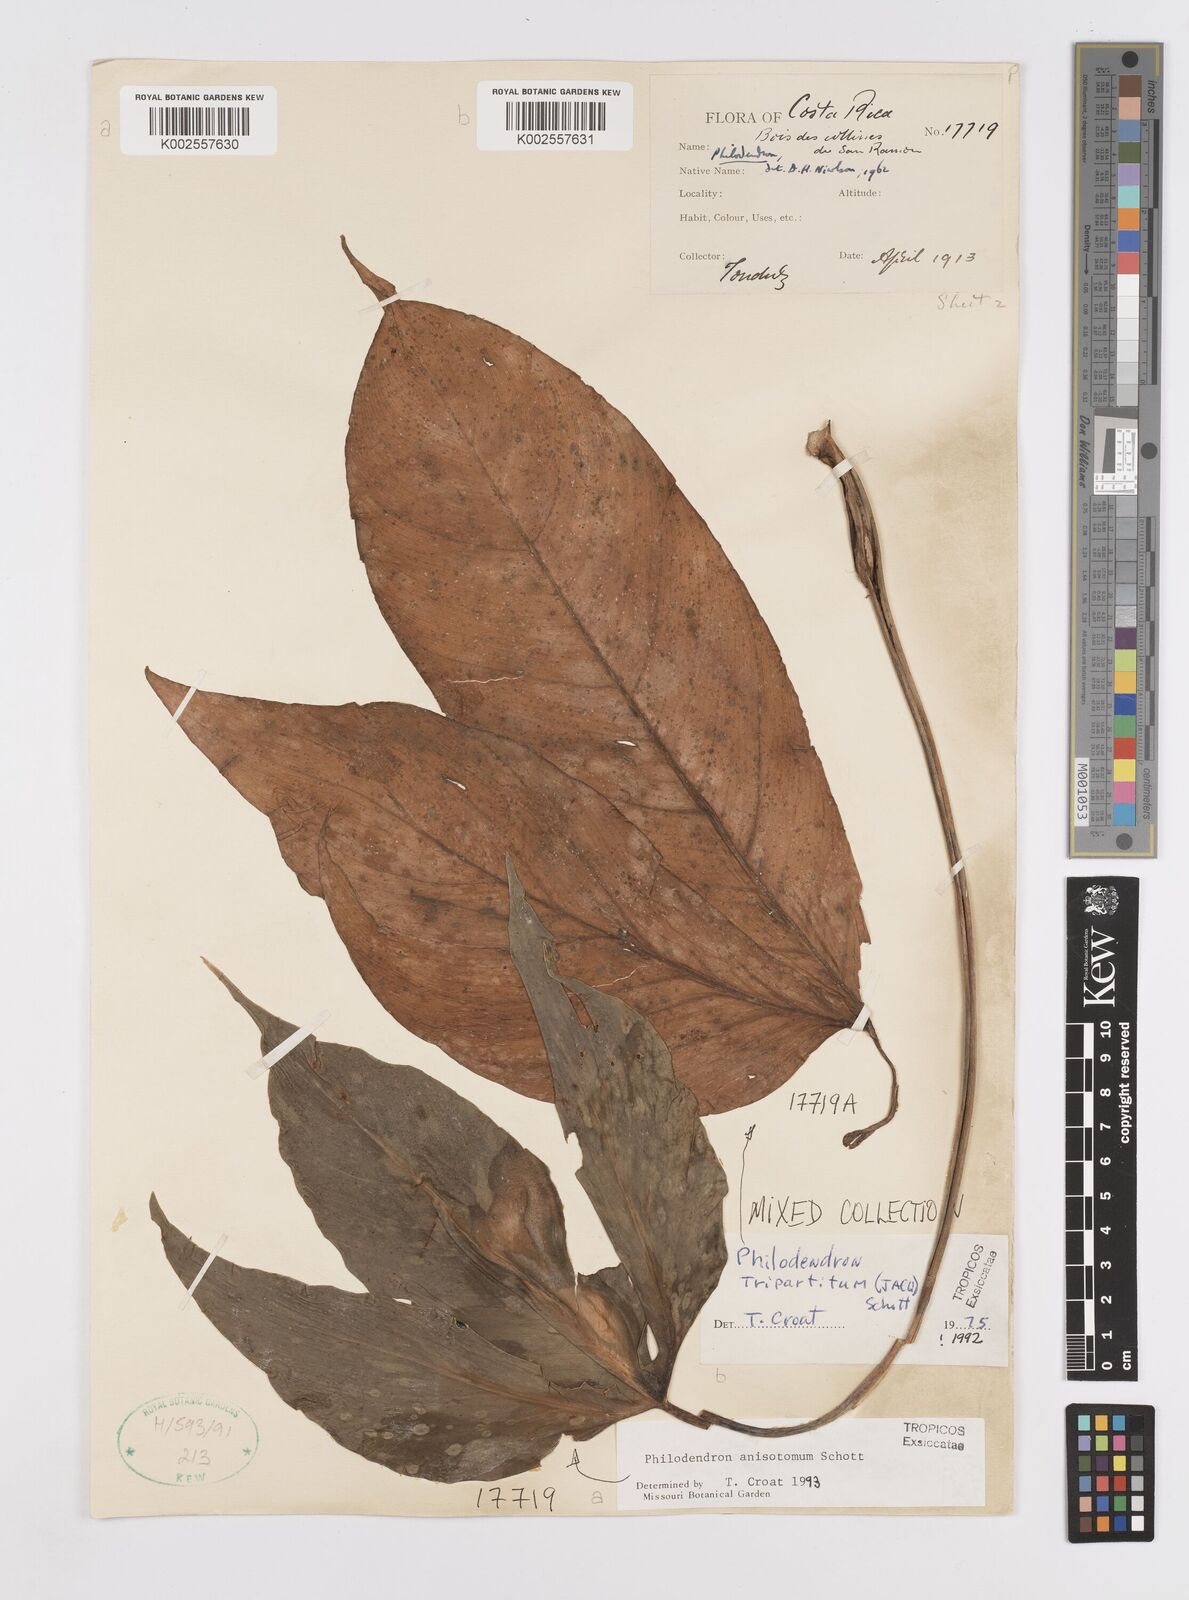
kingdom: Plantae
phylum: Tracheophyta
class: Liliopsida
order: Alismatales
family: Araceae
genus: Philodendron
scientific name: Philodendron tripartitum
